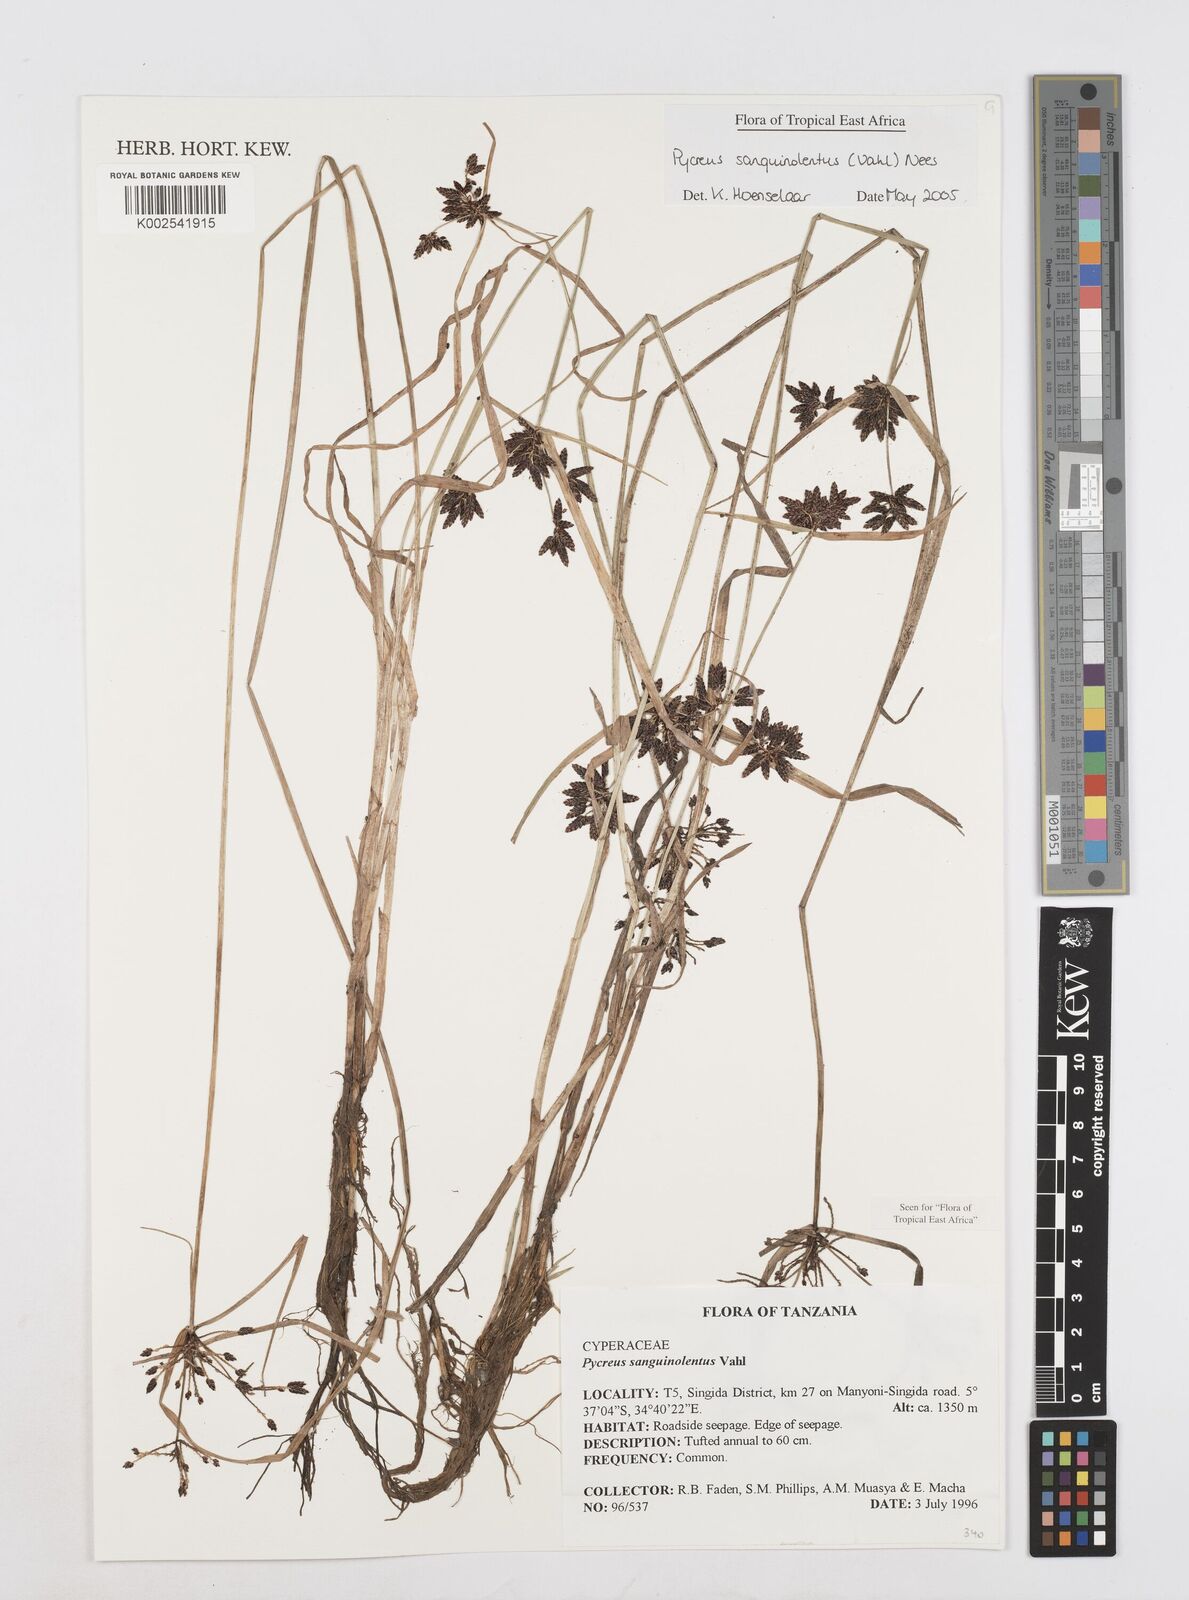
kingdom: Plantae
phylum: Tracheophyta
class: Liliopsida
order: Poales
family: Cyperaceae
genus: Cyperus
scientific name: Cyperus sanguinolentus
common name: Purpleglume flatsedge
